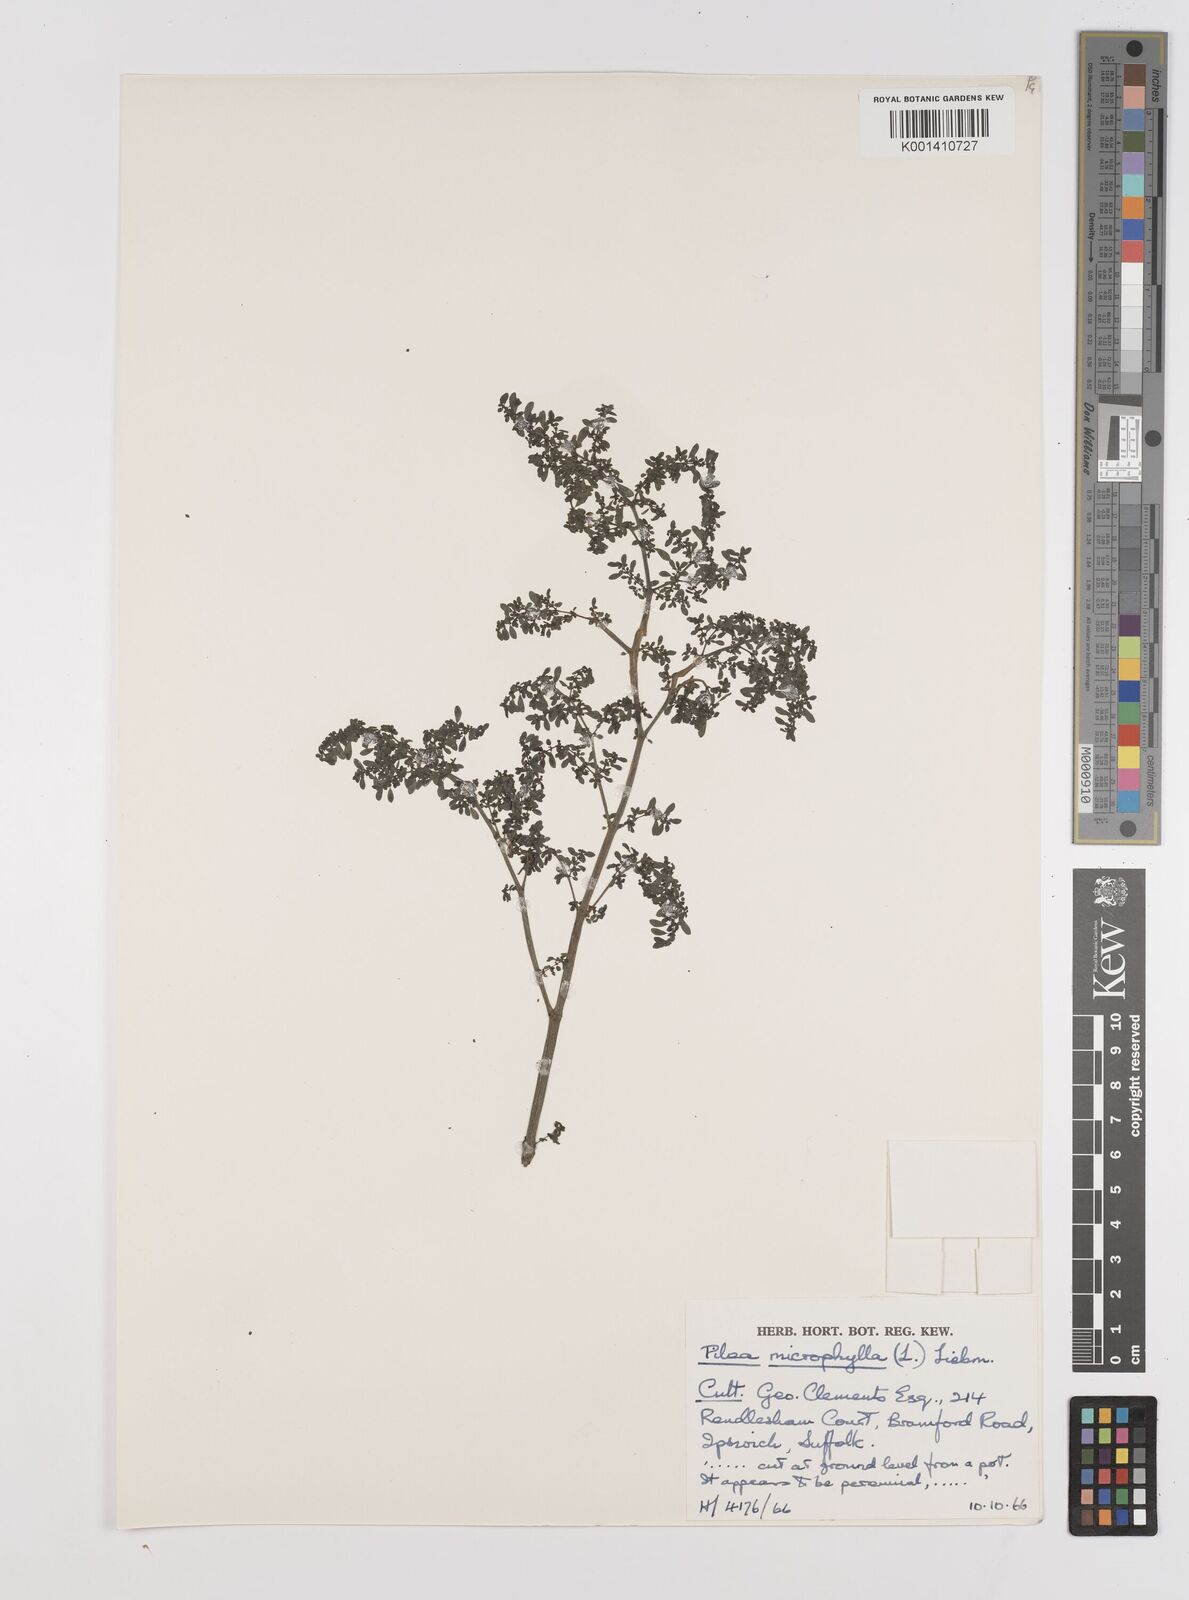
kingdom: Plantae
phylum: Tracheophyta
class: Magnoliopsida
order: Caryophyllales
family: Caryophyllaceae
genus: Stellaria
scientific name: Stellaria alsine
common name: Bog stitchwort
